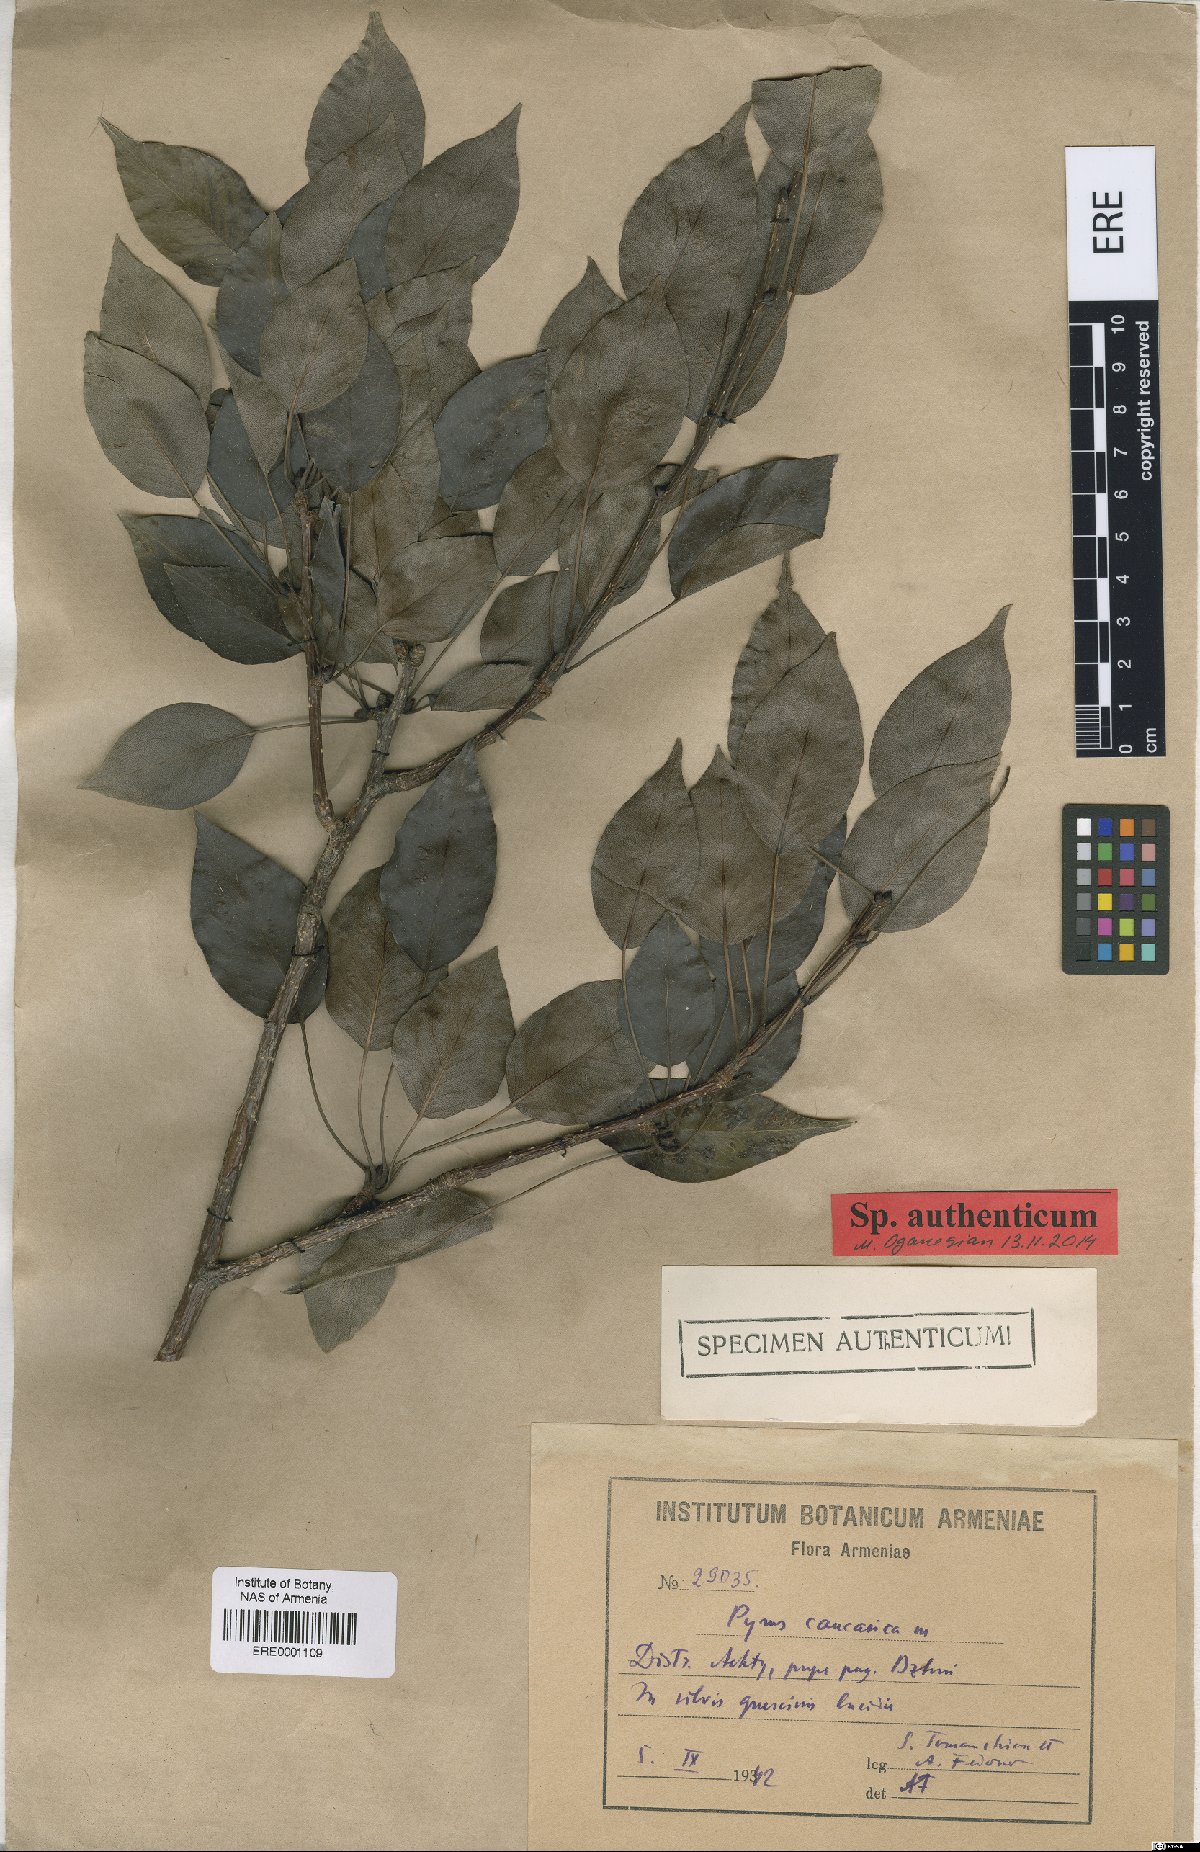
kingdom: Plantae
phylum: Tracheophyta
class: Magnoliopsida
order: Rosales
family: Rosaceae
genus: Pyrus
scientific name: Pyrus communis
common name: Pear
